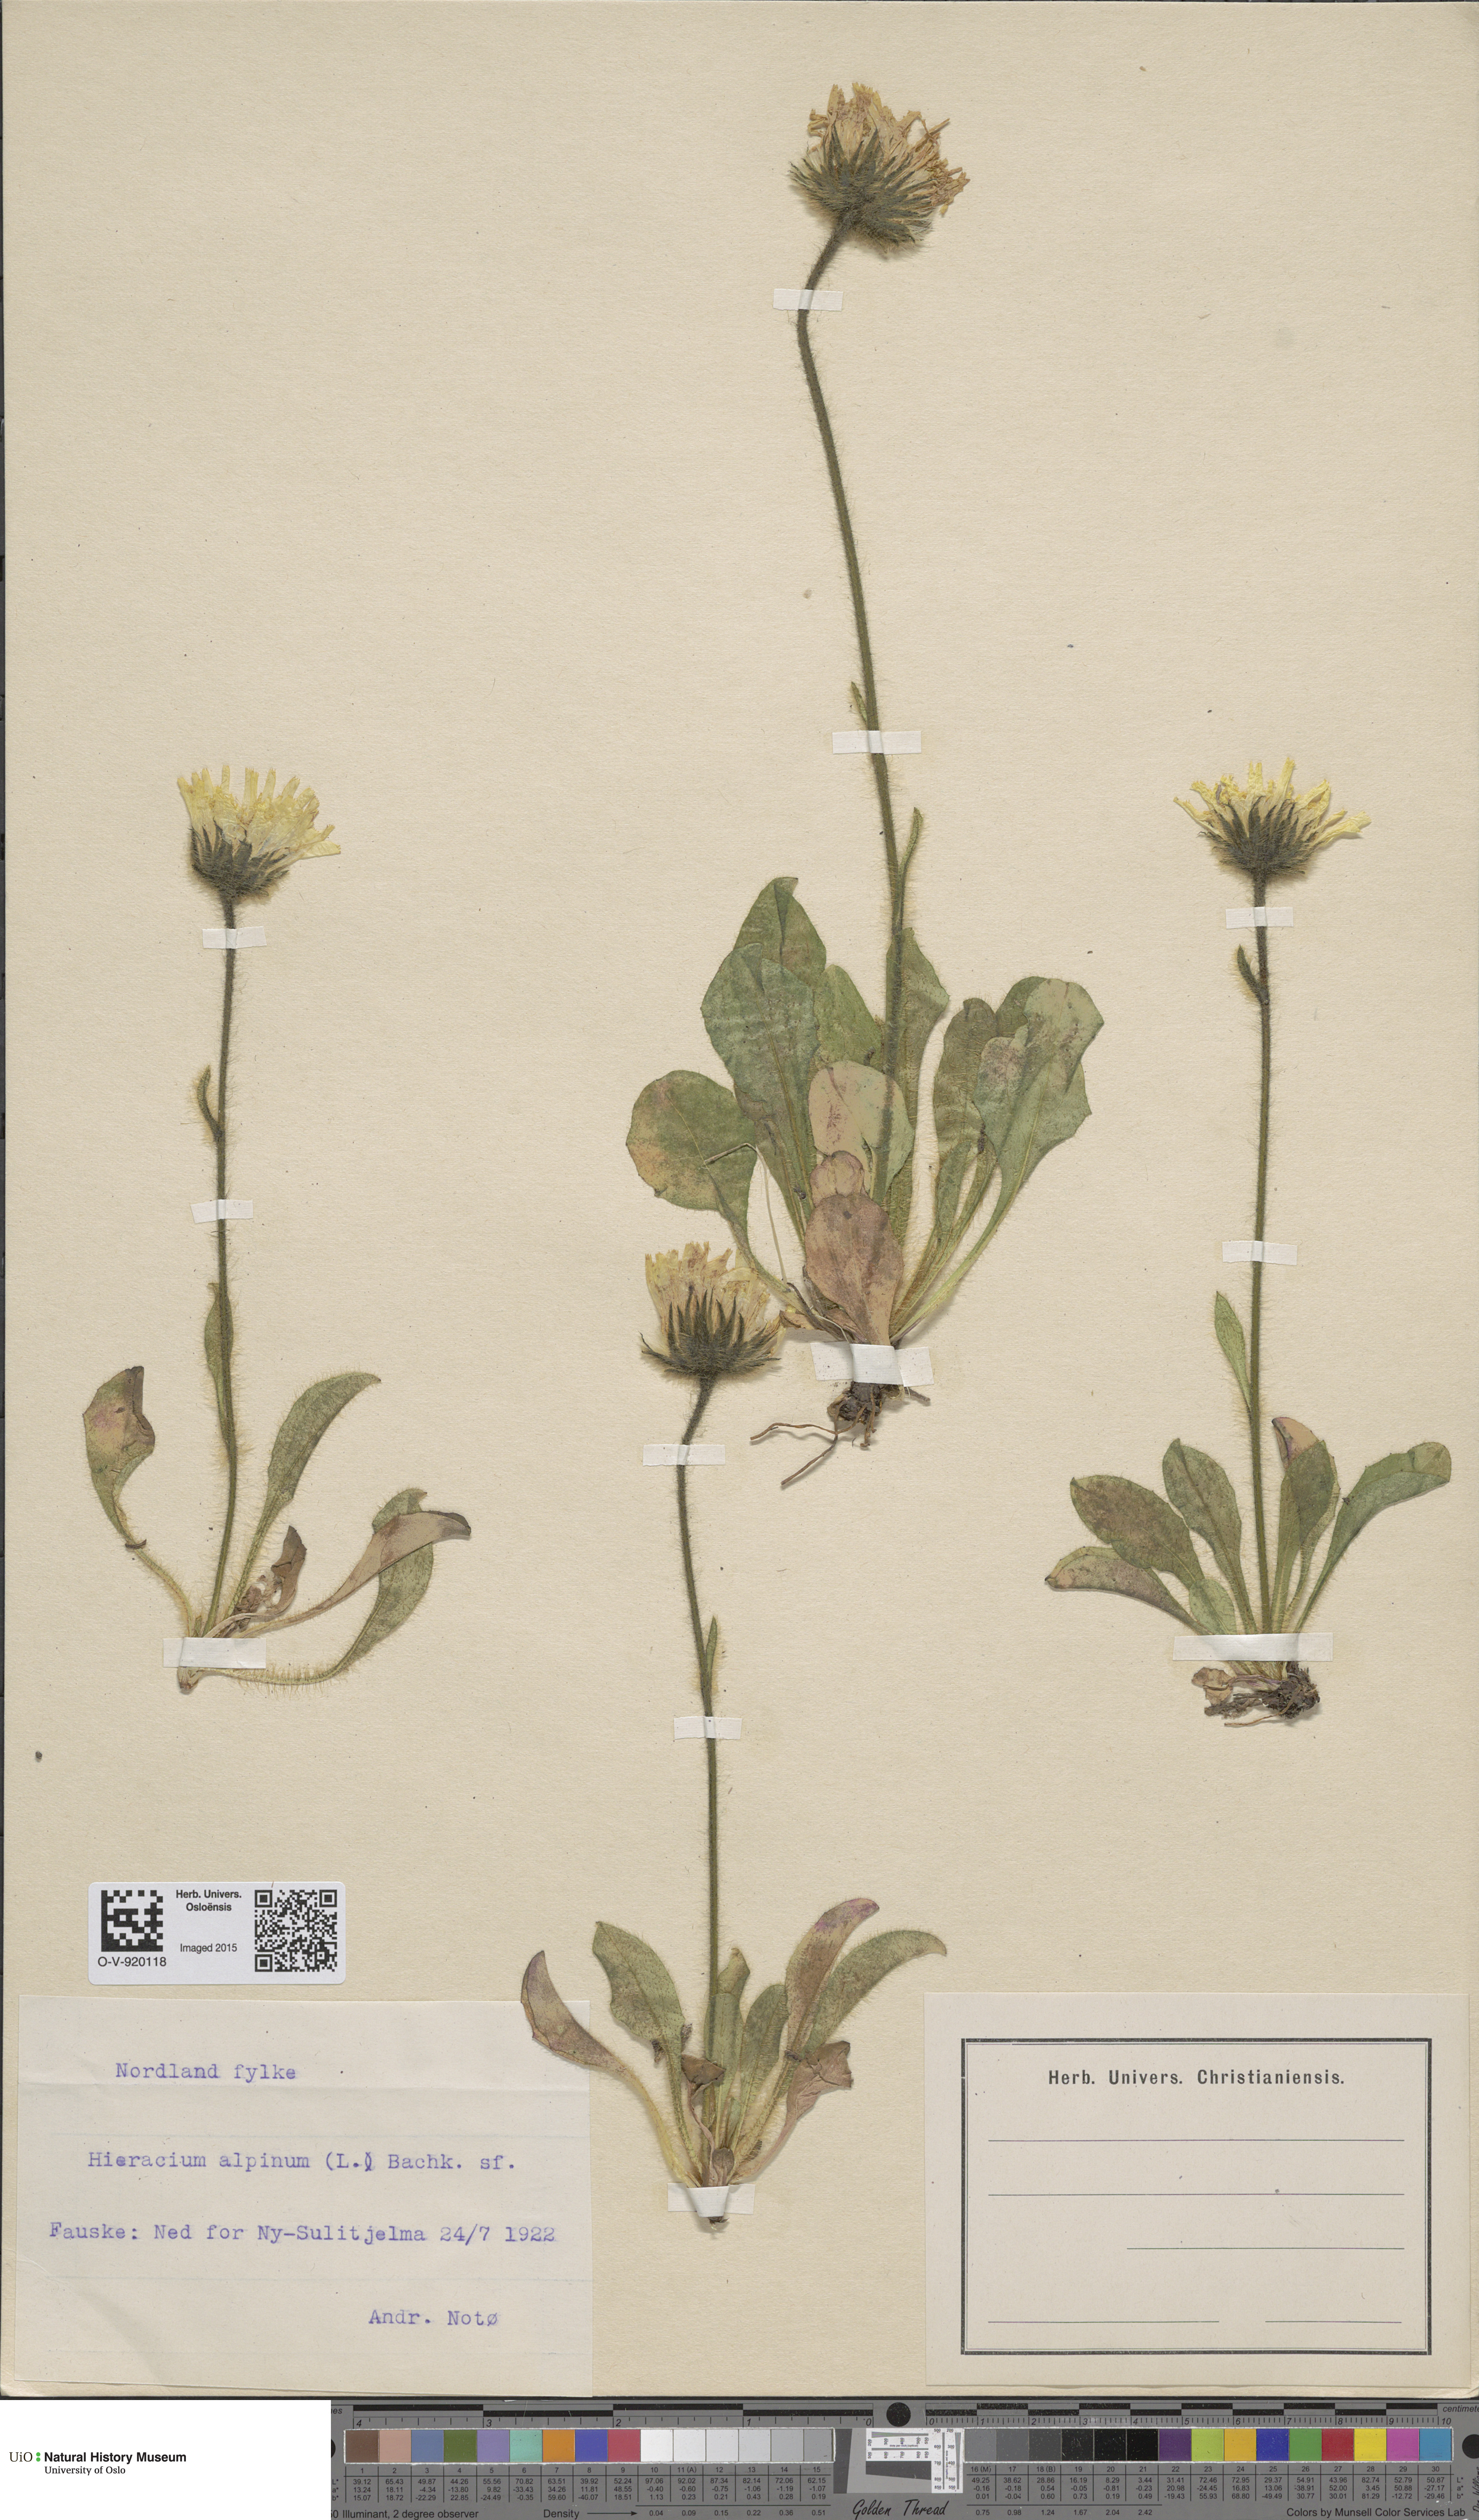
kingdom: Plantae
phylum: Tracheophyta
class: Magnoliopsida
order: Asterales
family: Asteraceae
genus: Hieracium
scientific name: Hieracium alpinum
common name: Alpine hawkweed
